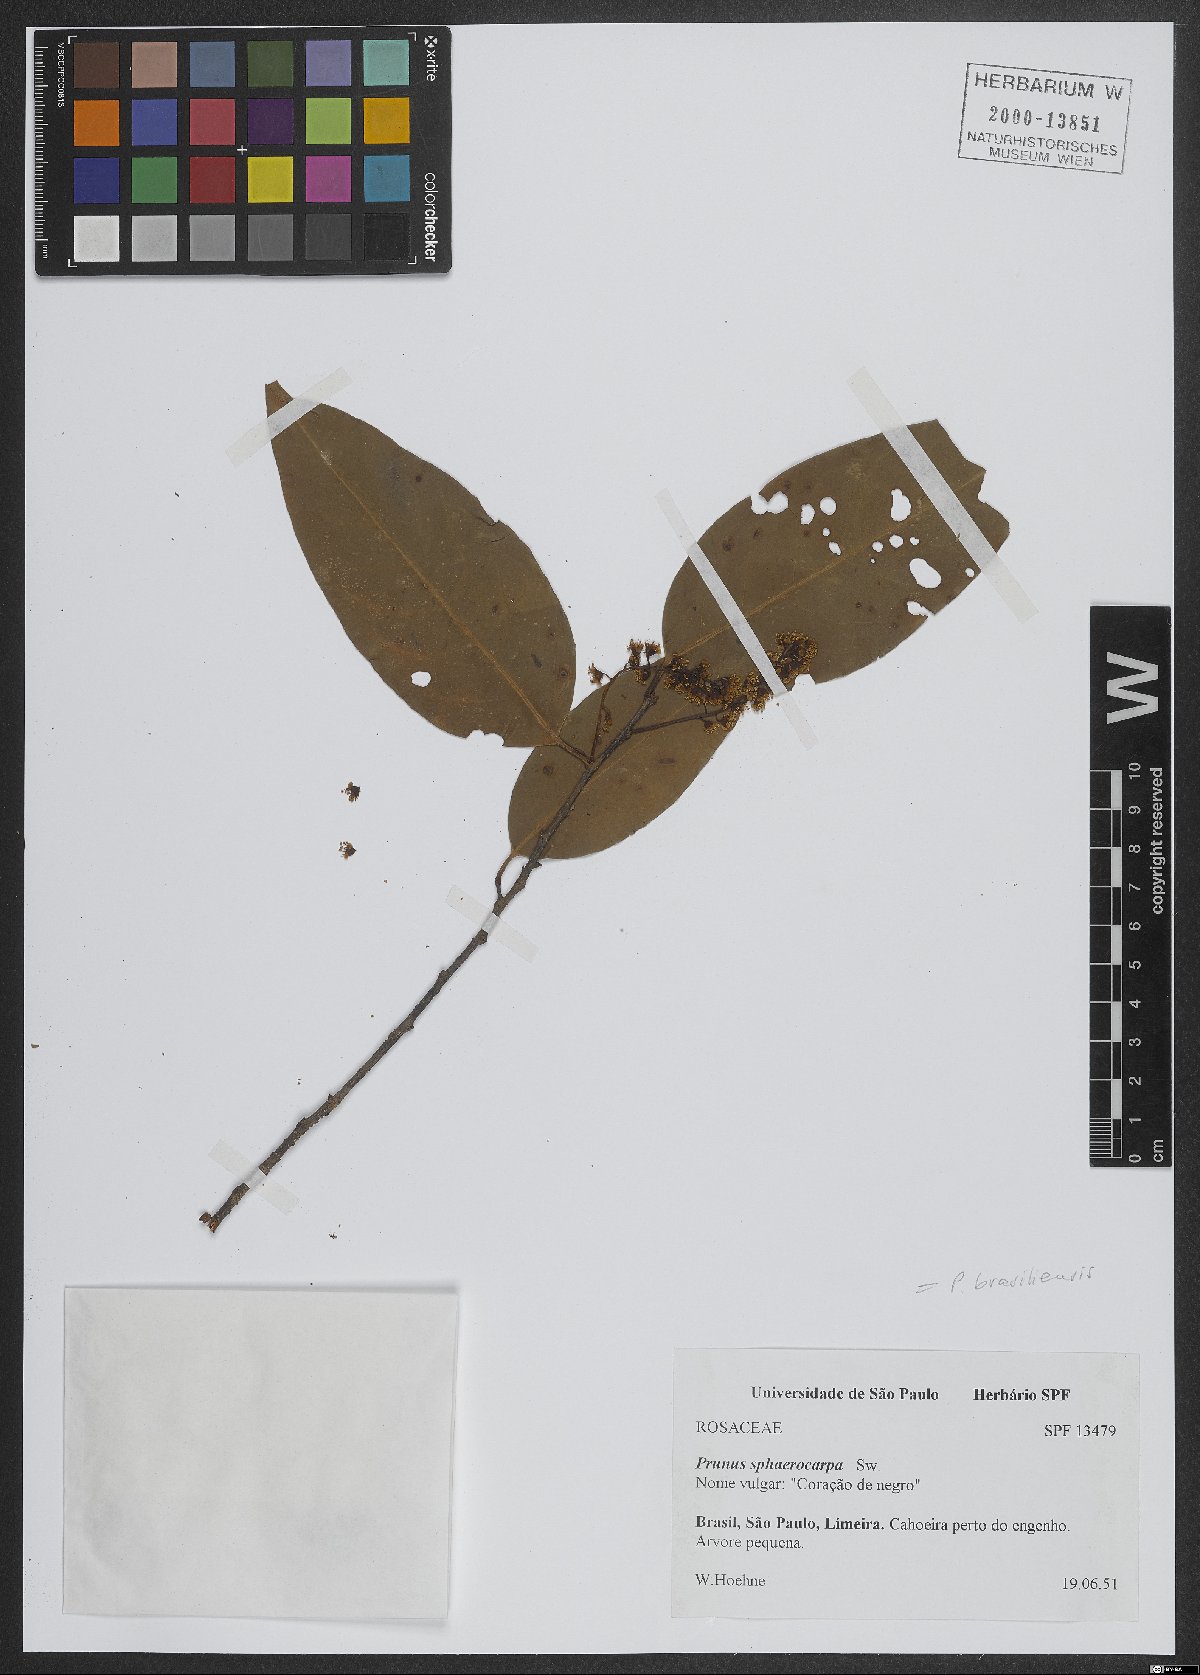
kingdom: Plantae
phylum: Tracheophyta
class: Magnoliopsida
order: Rosales
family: Rosaceae
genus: Prunus
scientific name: Prunus brasiliensis
